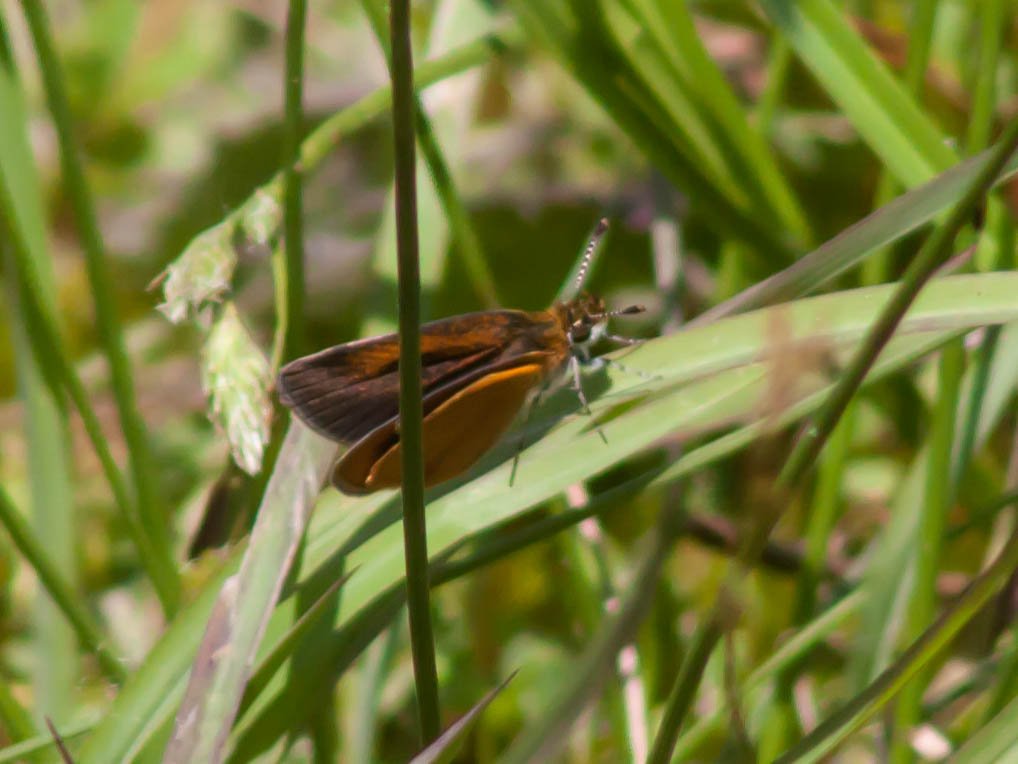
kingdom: Animalia
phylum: Arthropoda
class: Insecta
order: Lepidoptera
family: Hesperiidae
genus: Ancyloxypha
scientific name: Ancyloxypha numitor
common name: Least Skipper
